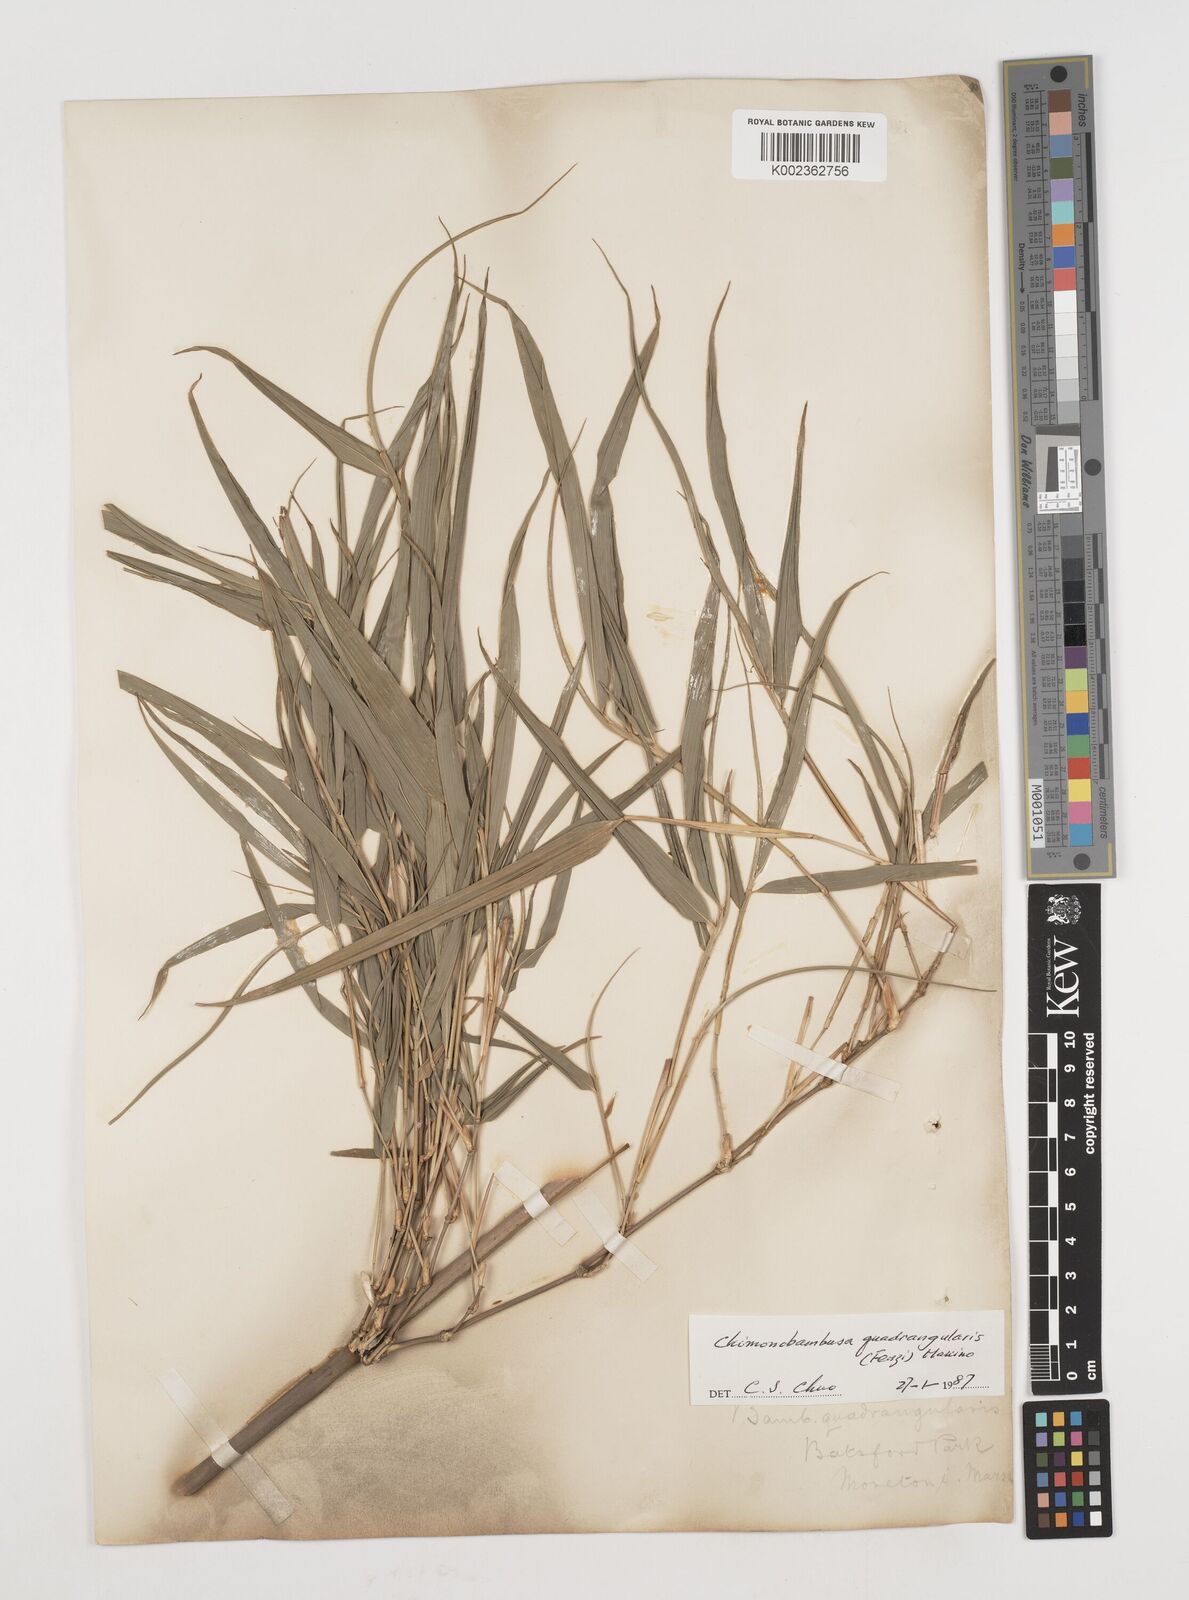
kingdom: Plantae
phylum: Tracheophyta
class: Liliopsida
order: Poales
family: Poaceae
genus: Chimonobambusa
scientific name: Chimonobambusa quadrangularis
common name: Square-stemmed bamboo
